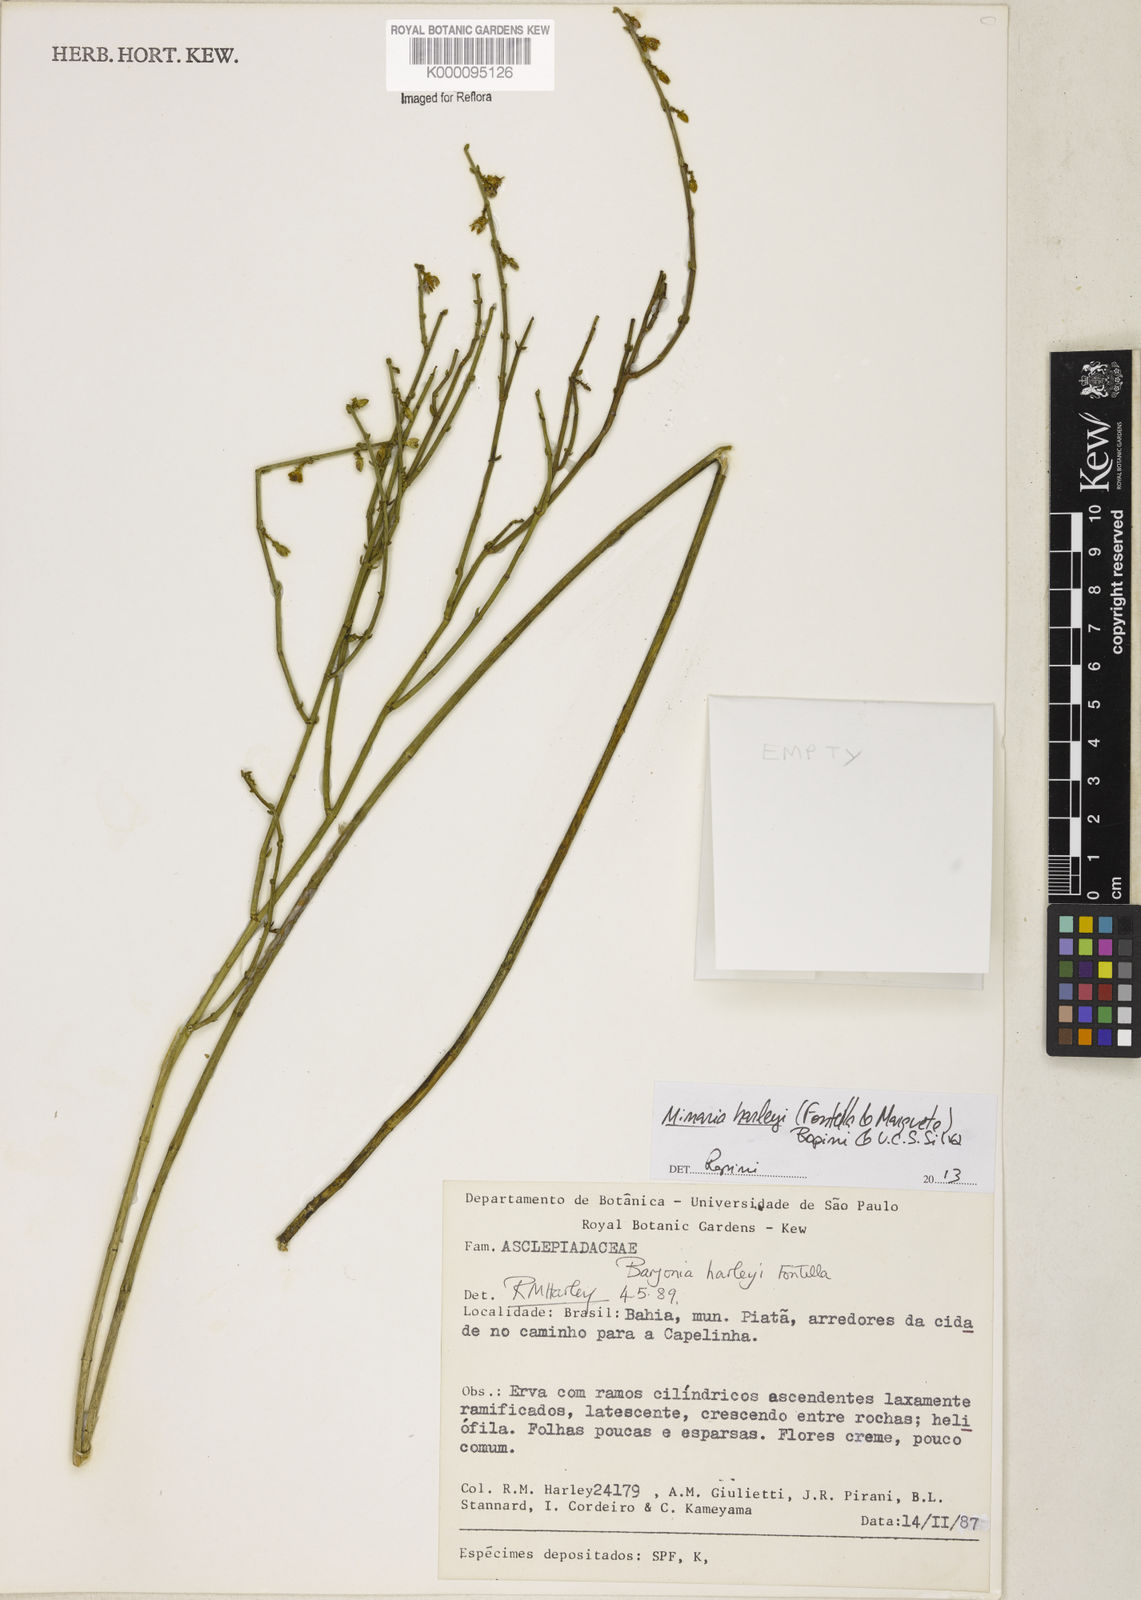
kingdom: Plantae
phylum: Tracheophyta
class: Magnoliopsida
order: Gentianales
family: Apocynaceae
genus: Minaria
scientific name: Minaria cordata
